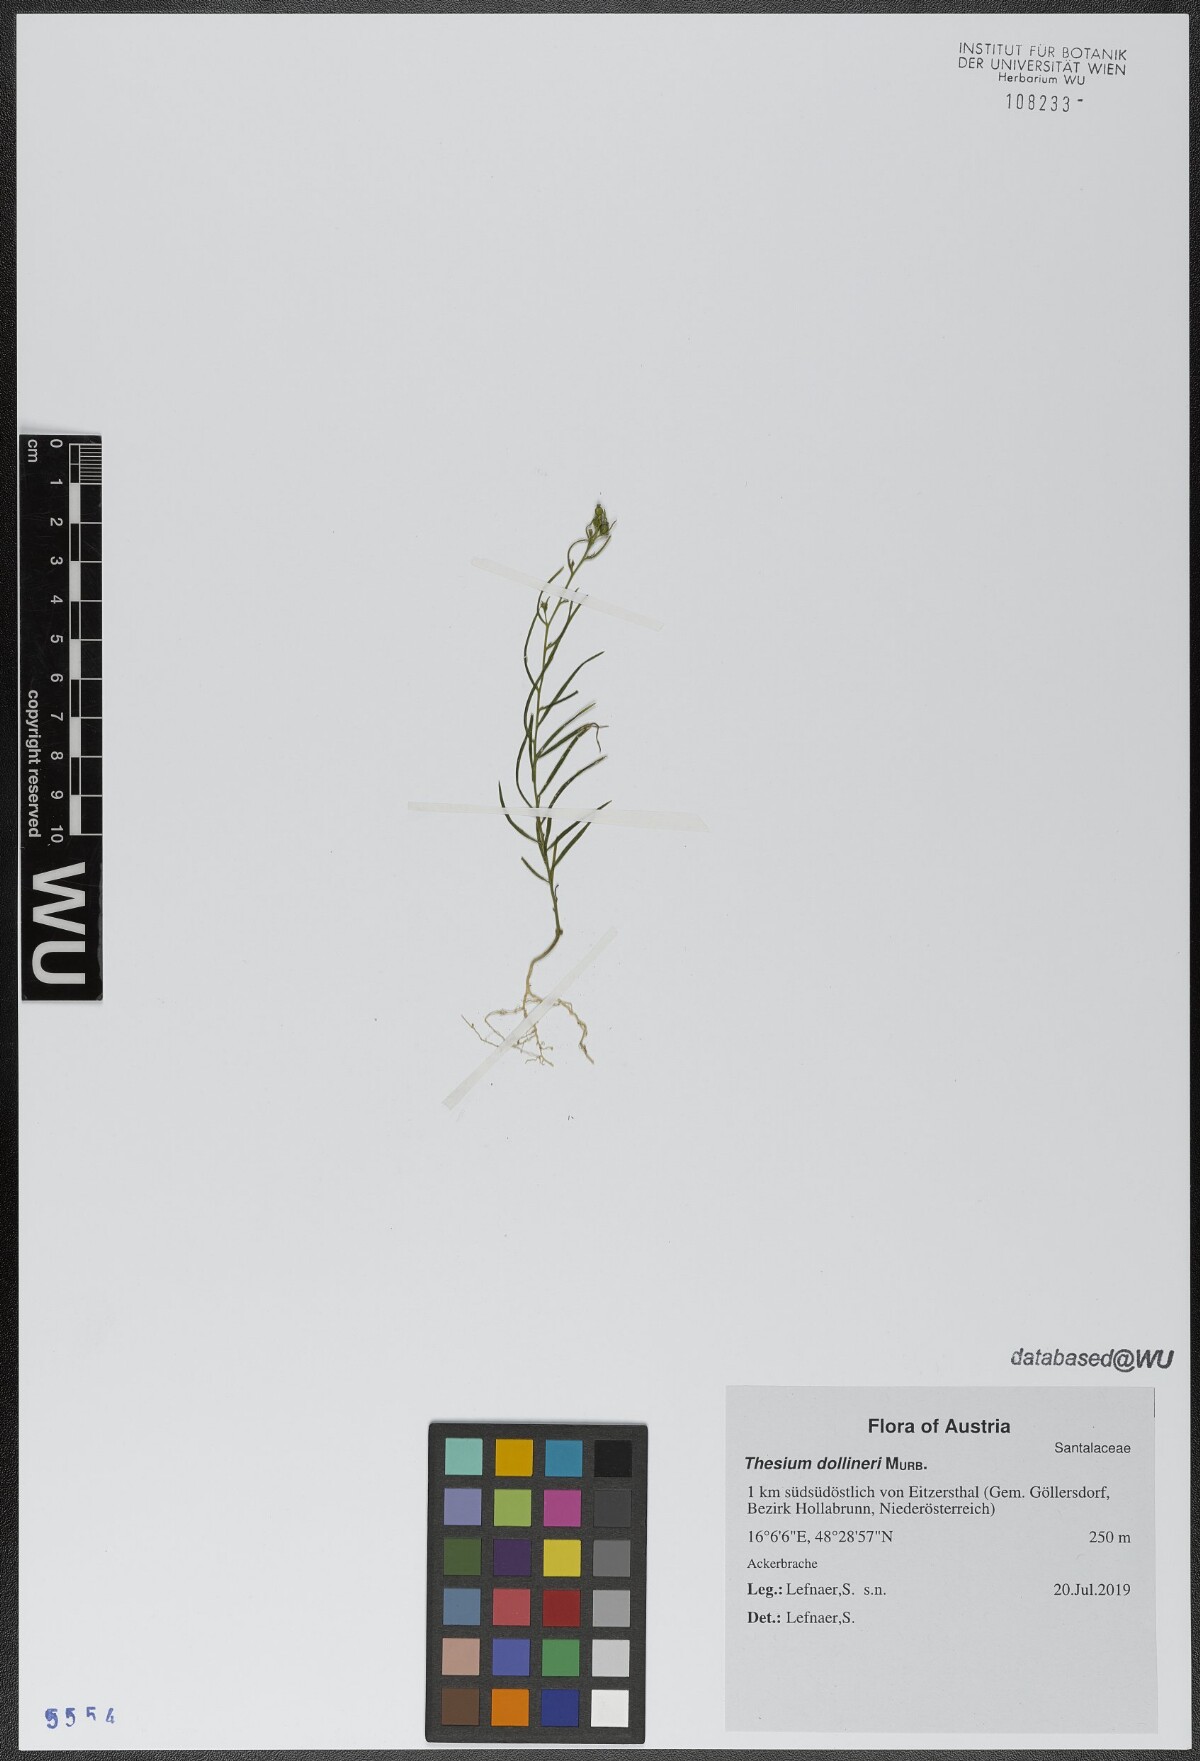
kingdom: Plantae
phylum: Tracheophyta
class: Magnoliopsida
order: Santalales
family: Thesiaceae
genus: Thesium
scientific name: Thesium dollineri
